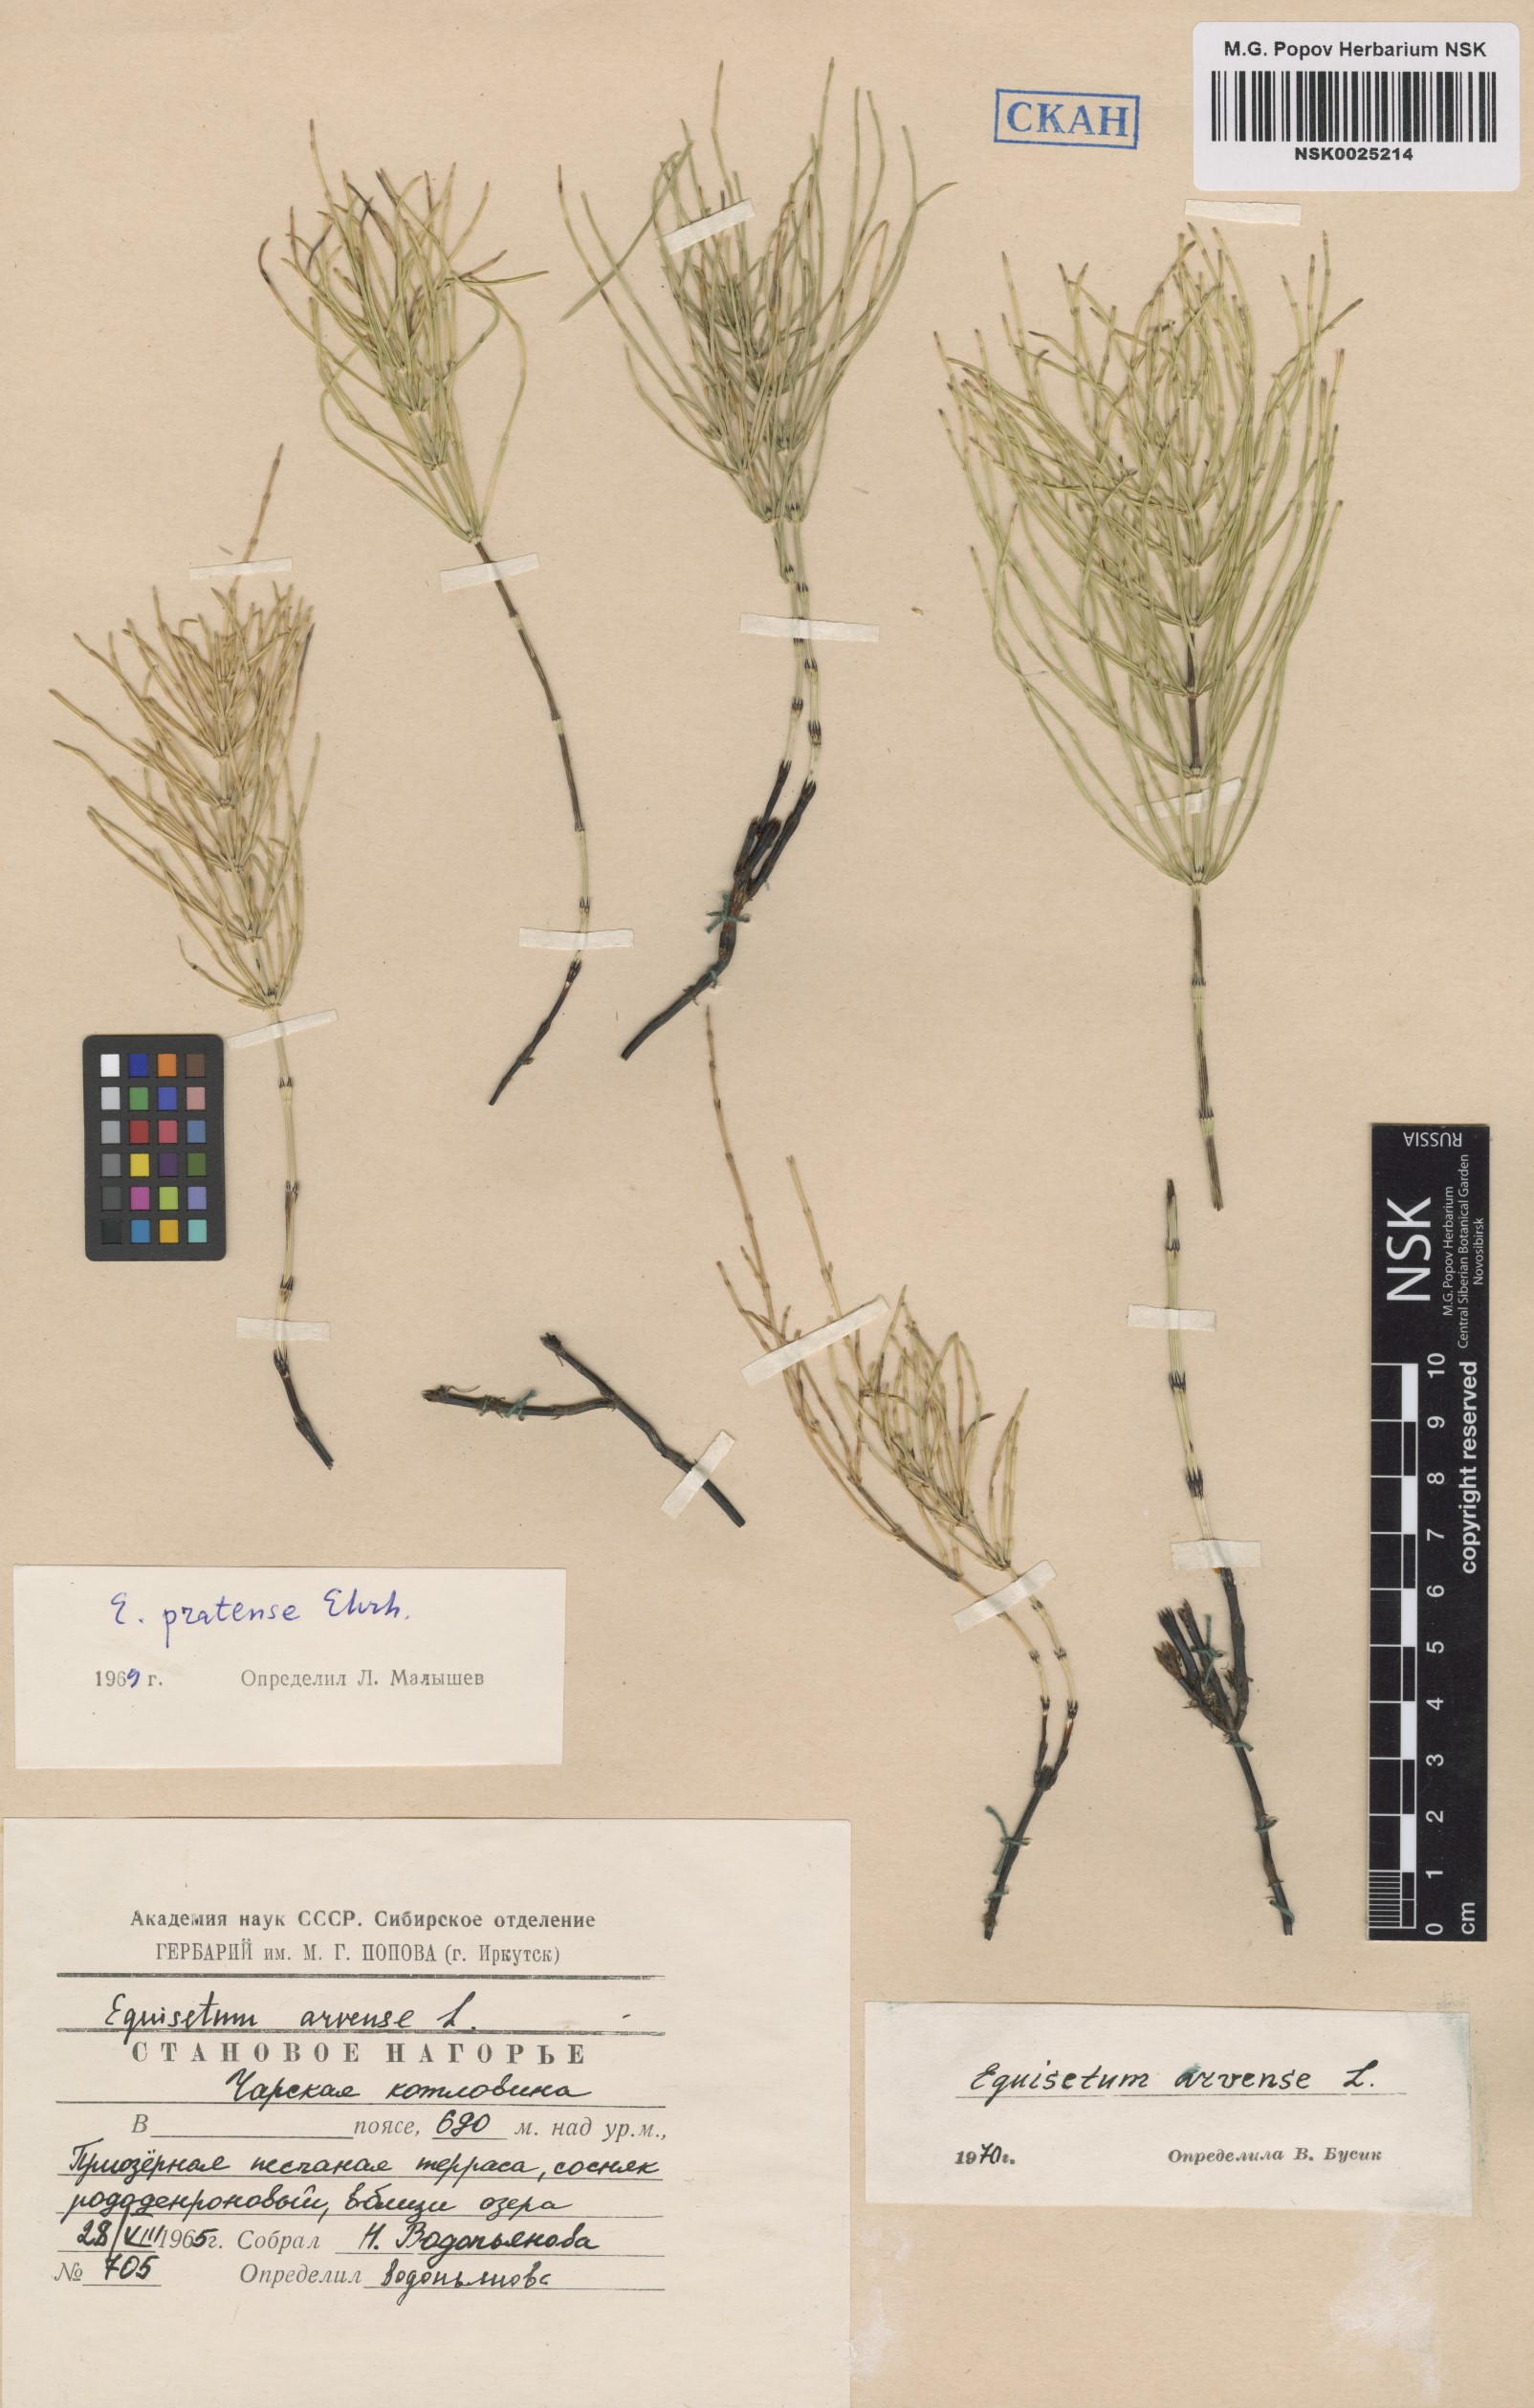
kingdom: Plantae
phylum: Tracheophyta
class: Polypodiopsida
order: Equisetales
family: Equisetaceae
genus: Equisetum
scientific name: Equisetum arvense
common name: Field horsetail
